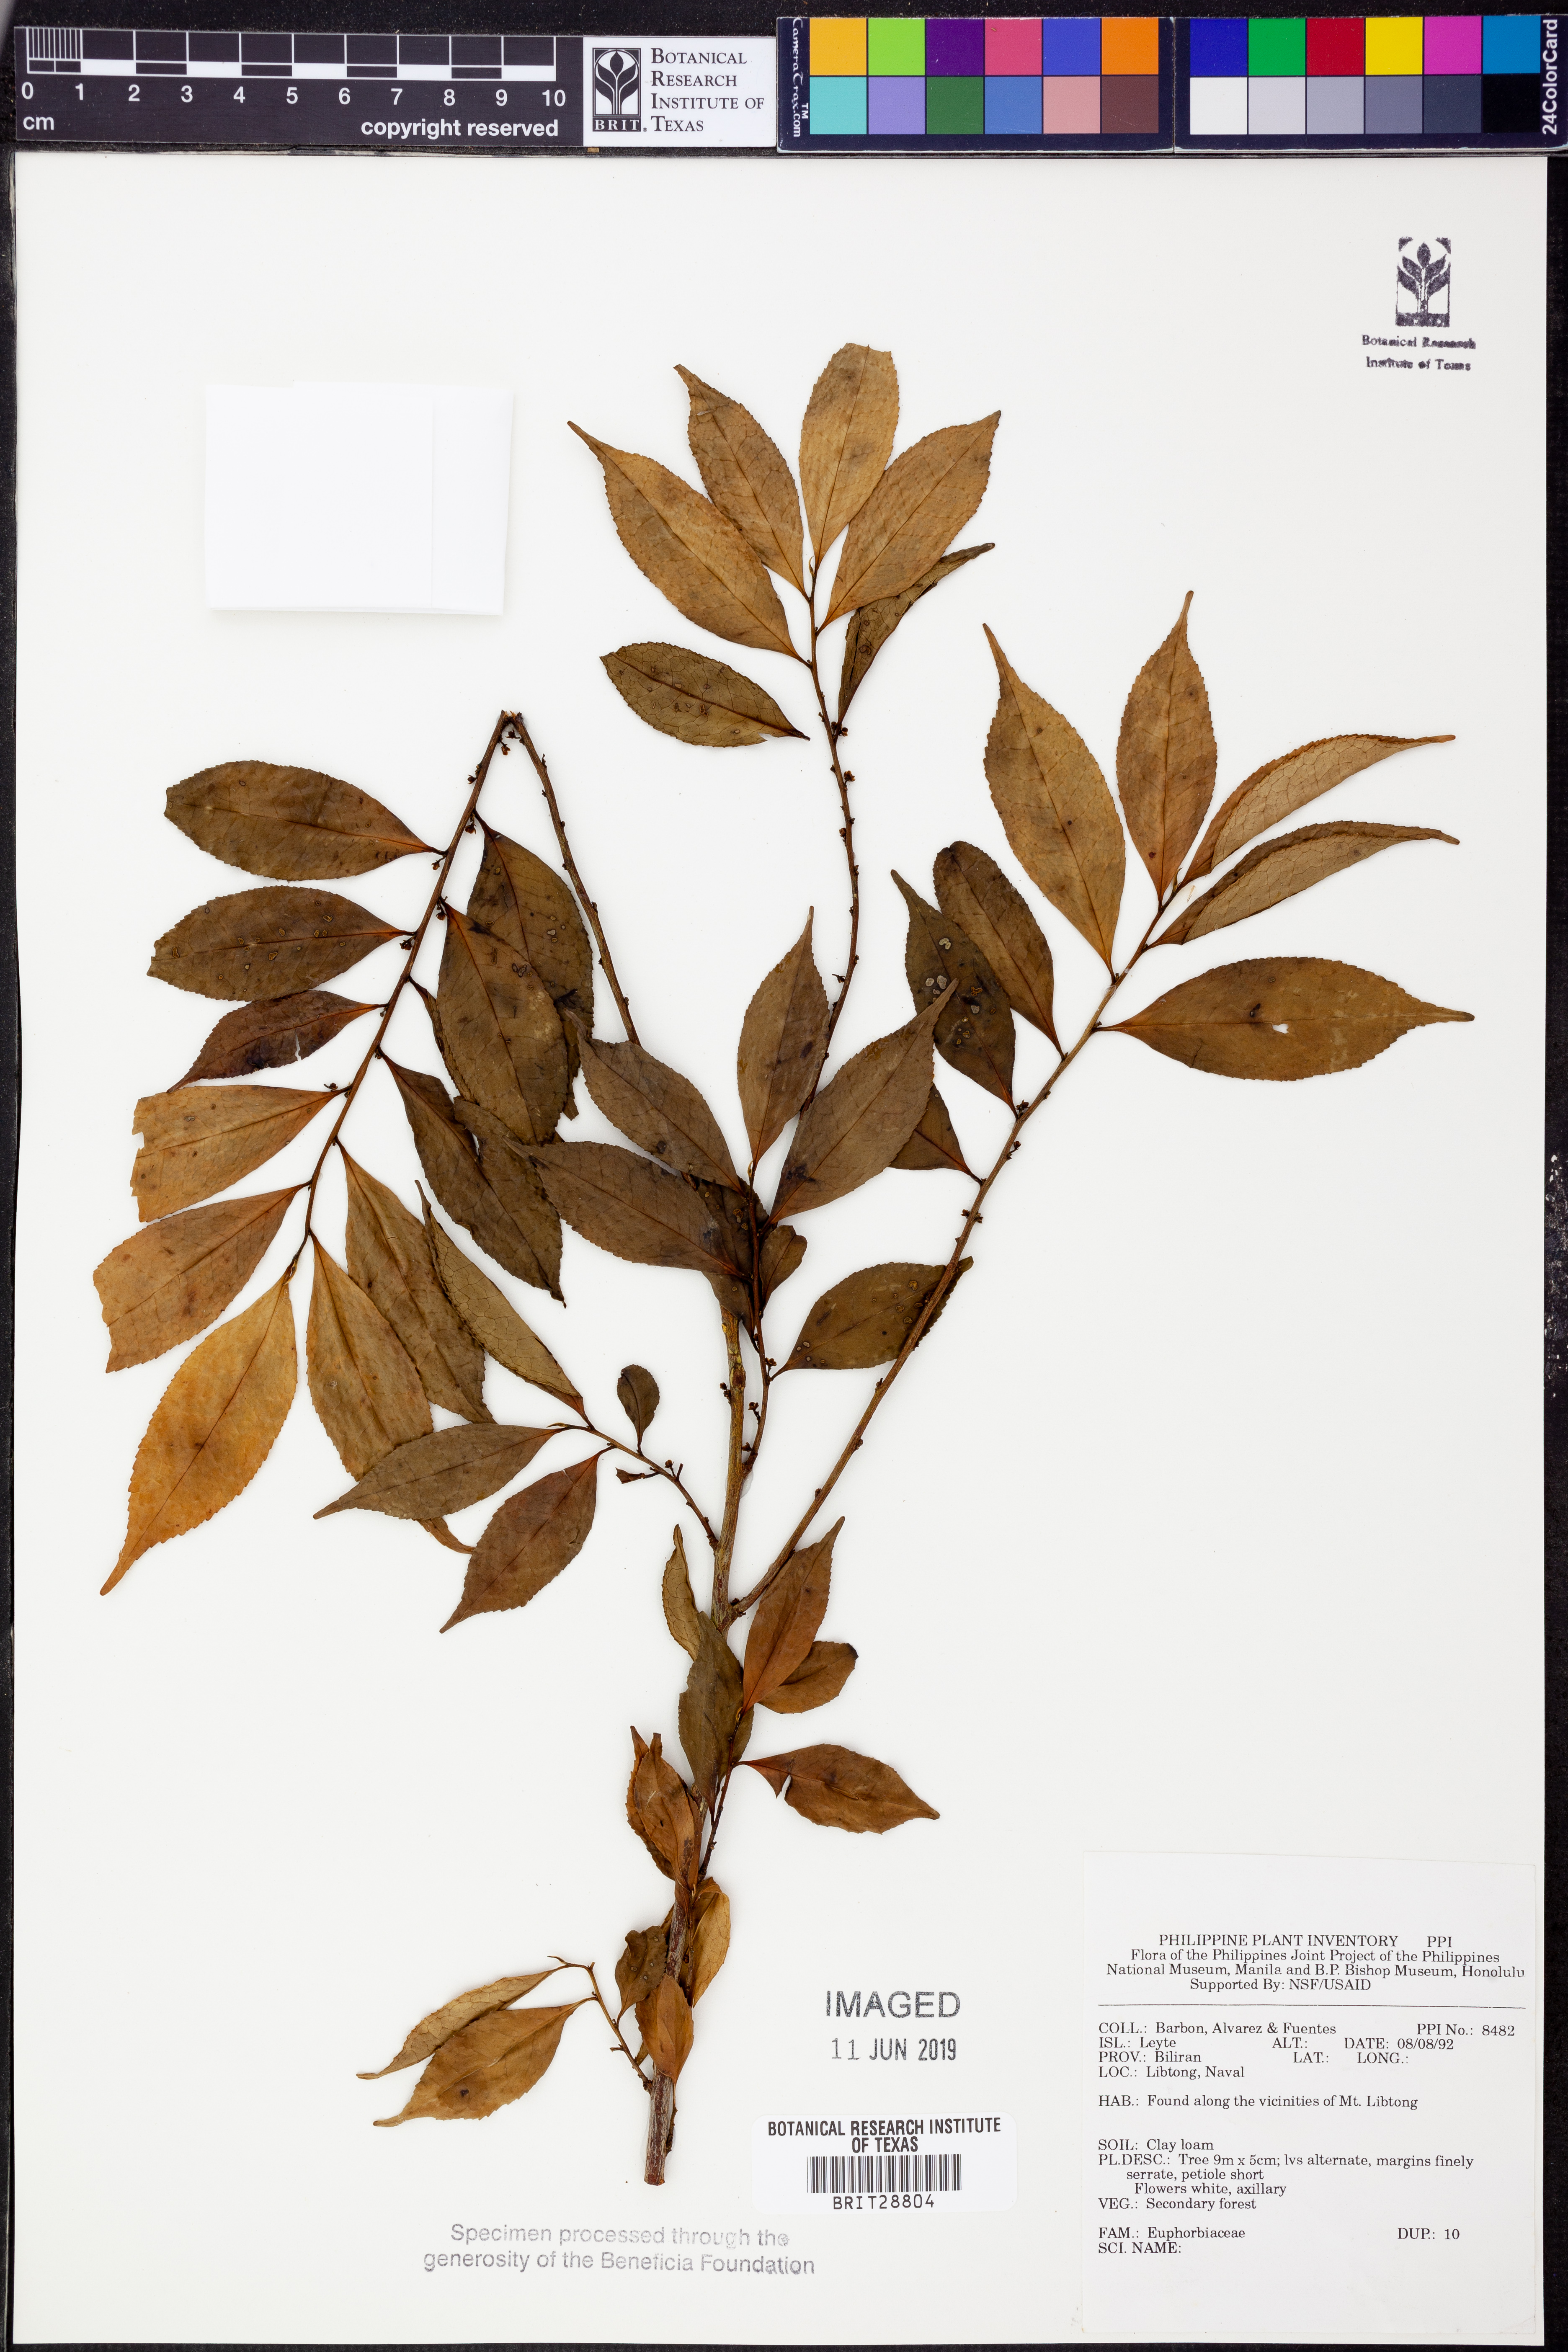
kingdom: Plantae
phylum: Tracheophyta
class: Magnoliopsida
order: Malpighiales
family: Euphorbiaceae
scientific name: Euphorbiaceae
